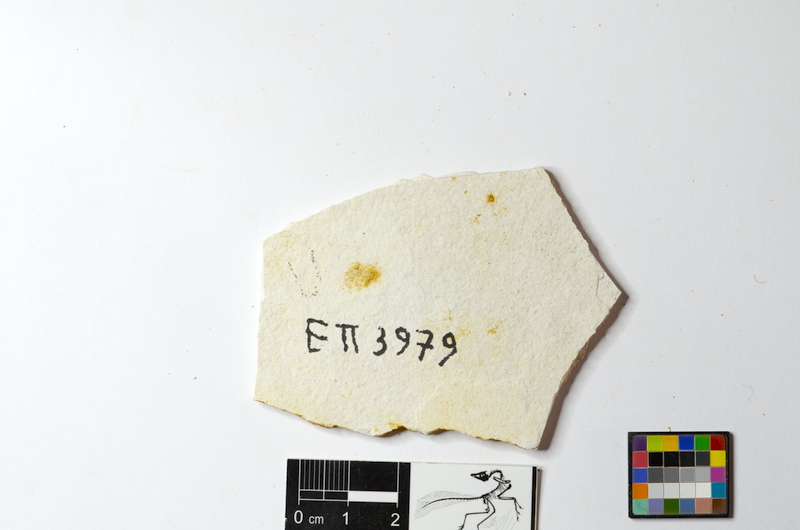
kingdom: Animalia
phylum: Chordata
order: Salmoniformes
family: Orthogonikleithridae
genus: Orthogonikleithrus
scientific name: Orthogonikleithrus hoelli
